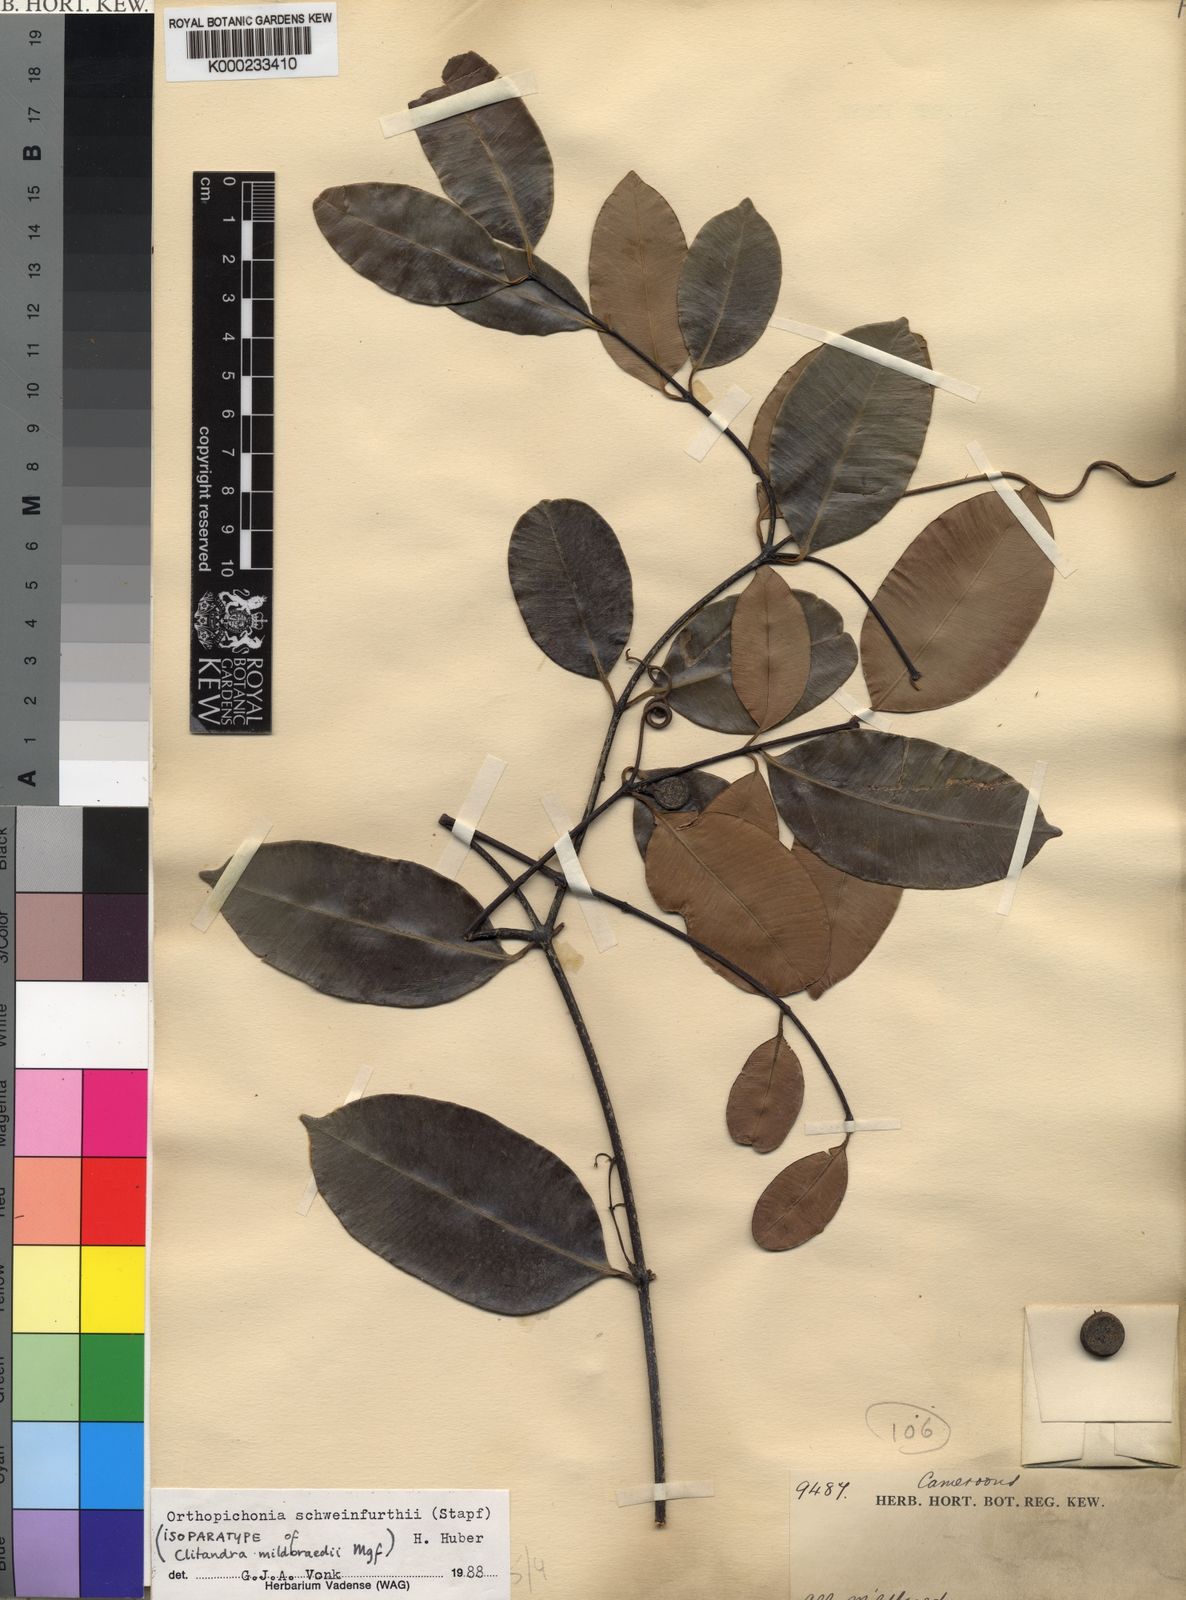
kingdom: Plantae
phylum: Tracheophyta
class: Magnoliopsida
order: Gentianales
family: Apocynaceae
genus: Orthopichonia
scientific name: Orthopichonia schweinfurthii
